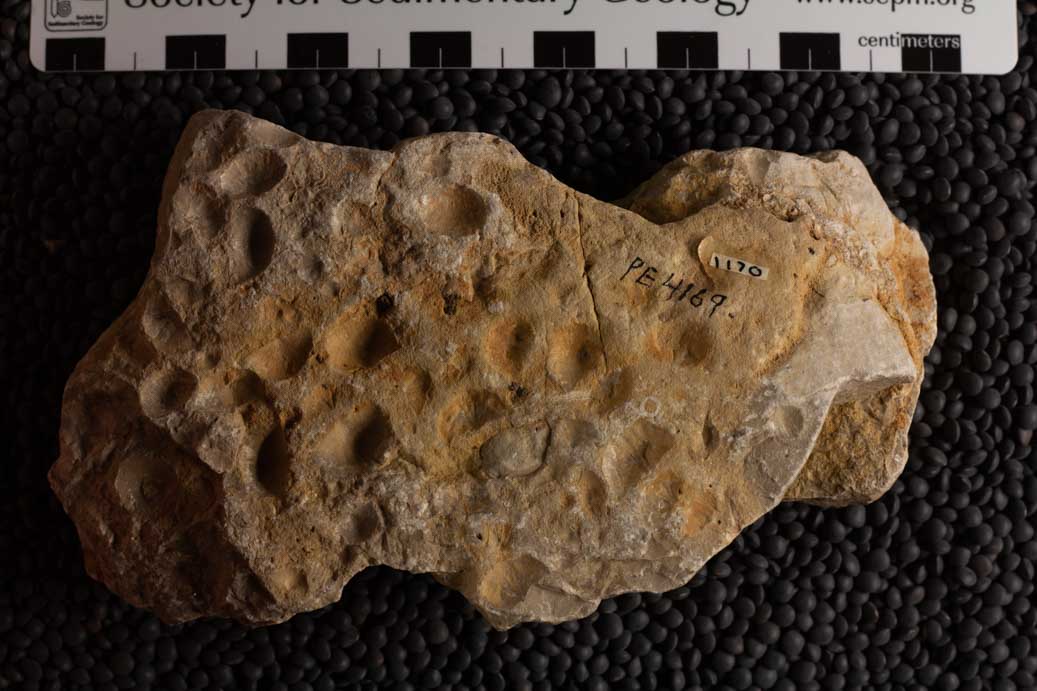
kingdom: Animalia
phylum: Brachiopoda
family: Sowerbyellidae
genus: Sowerbyella
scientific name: Sowerbyella
